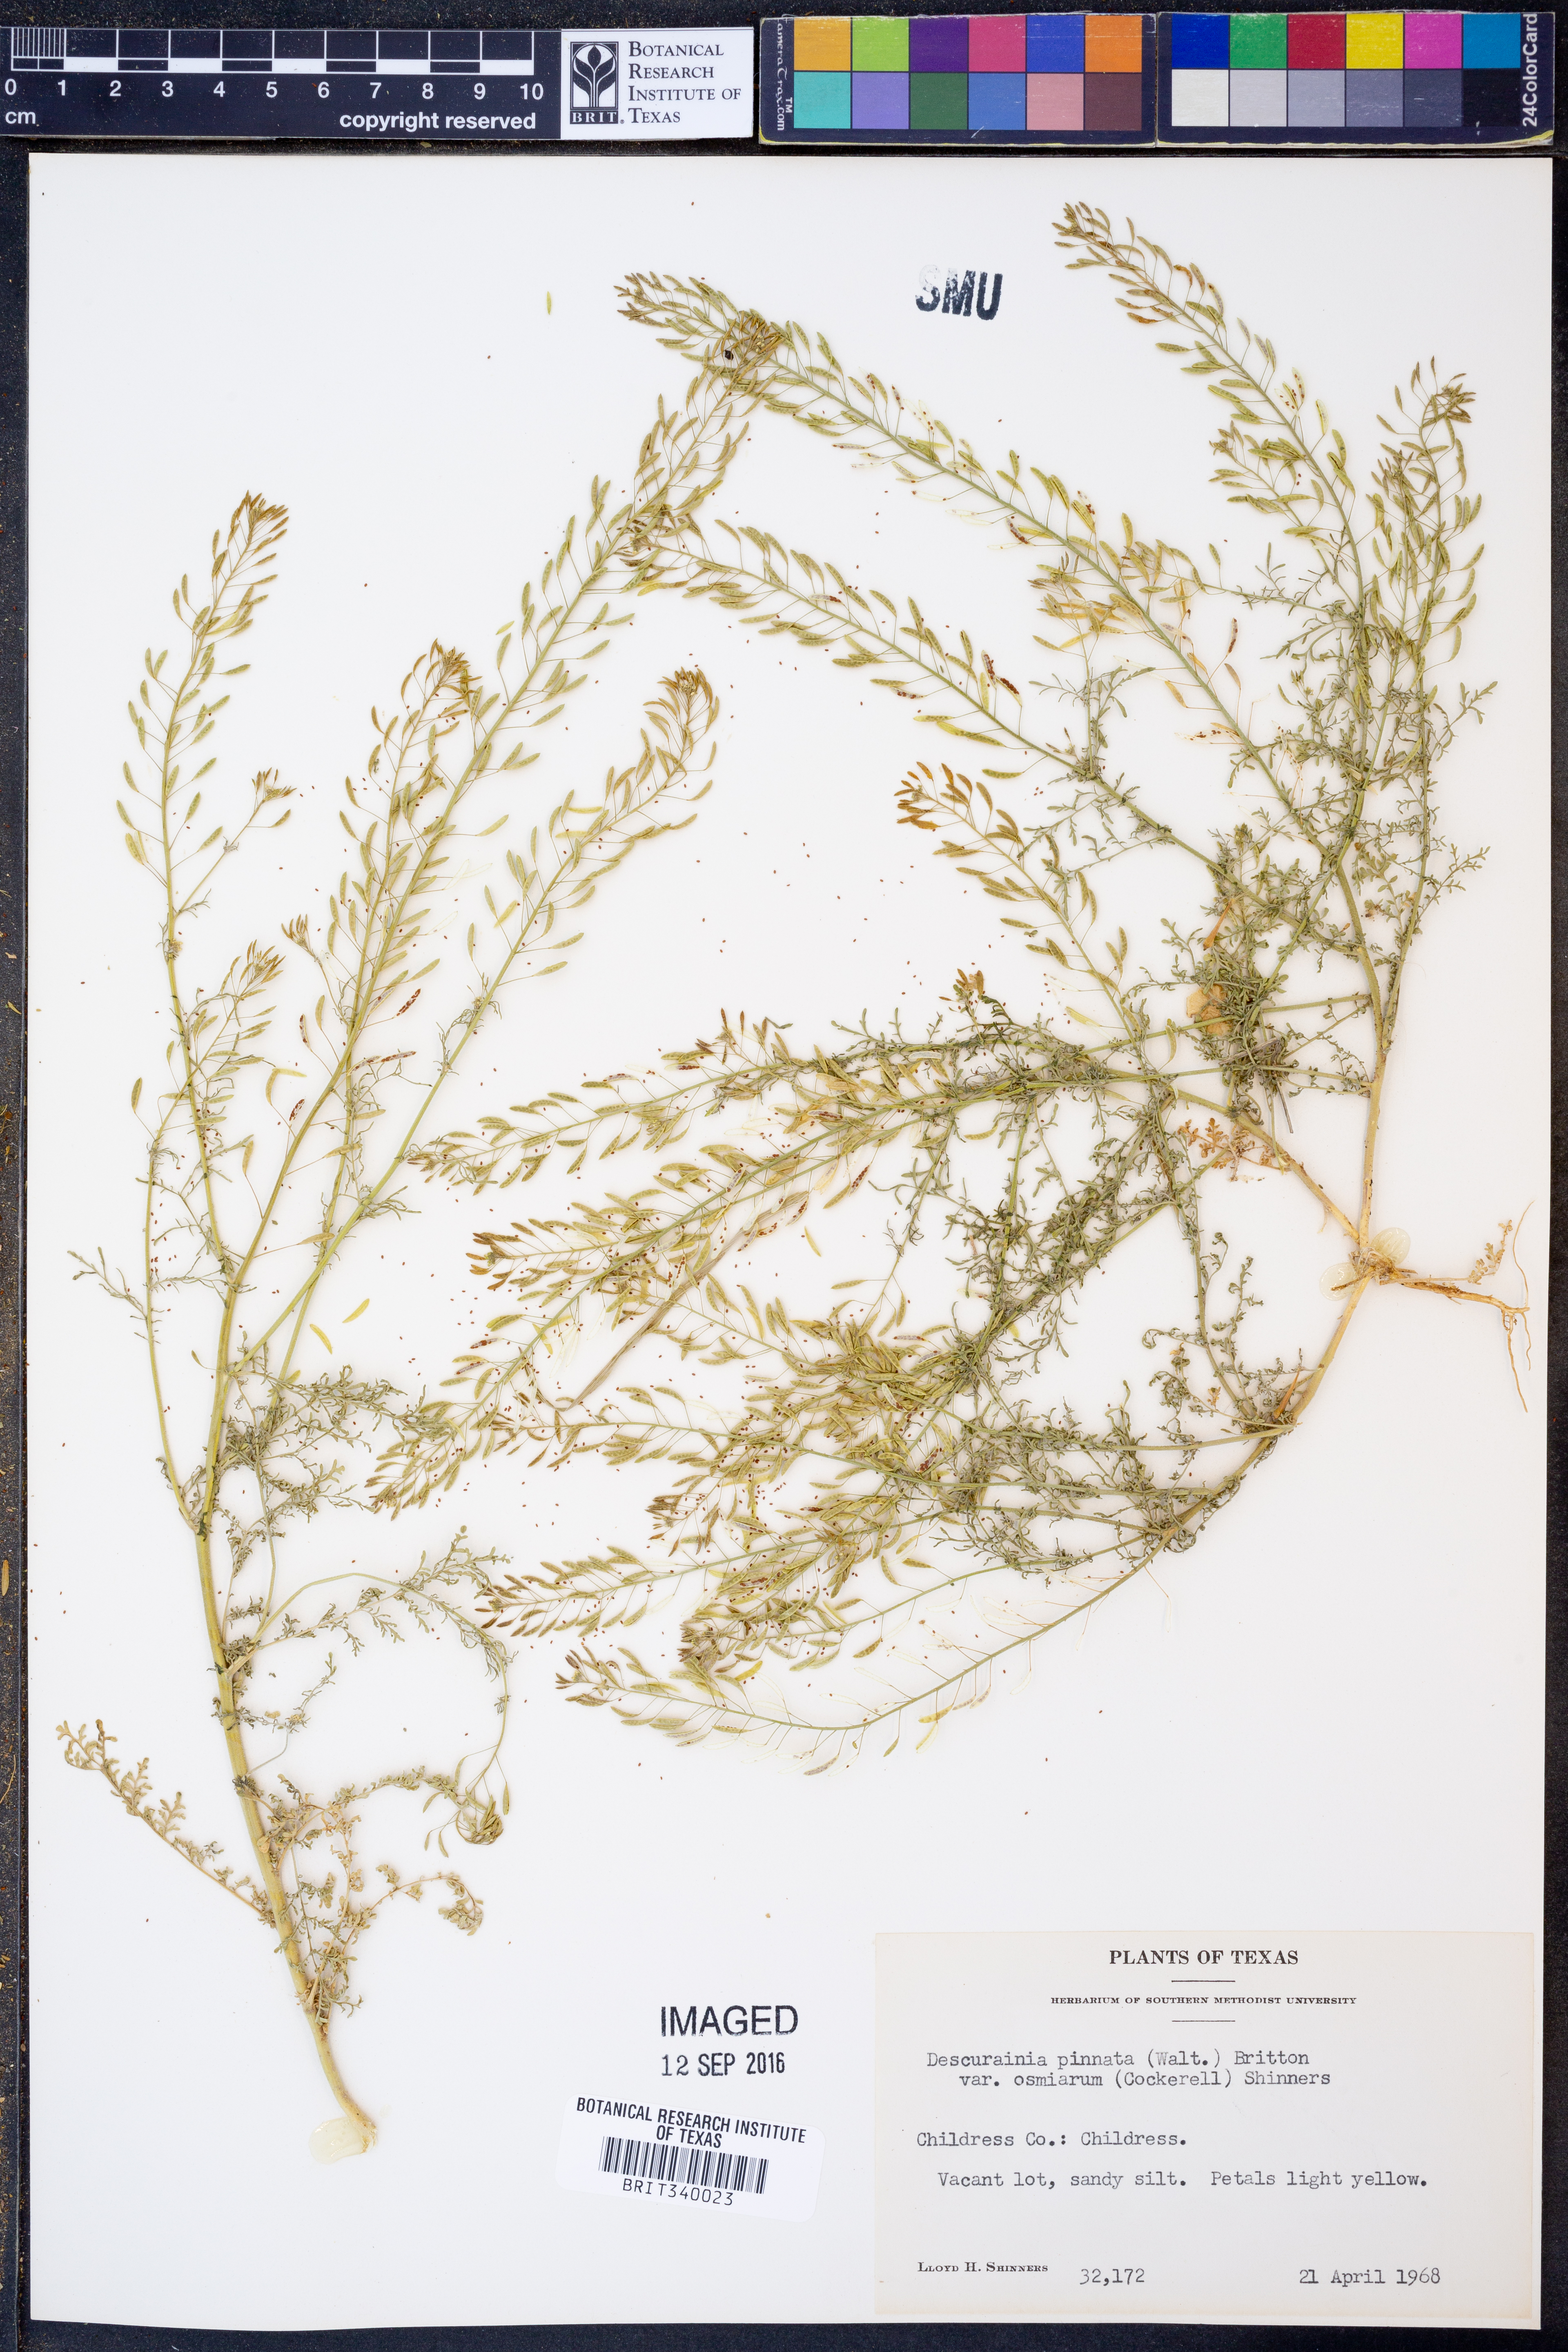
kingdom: Plantae
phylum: Tracheophyta
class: Magnoliopsida
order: Brassicales
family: Brassicaceae
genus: Descurainia
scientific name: Descurainia pinnata
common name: Western tansy mustard
